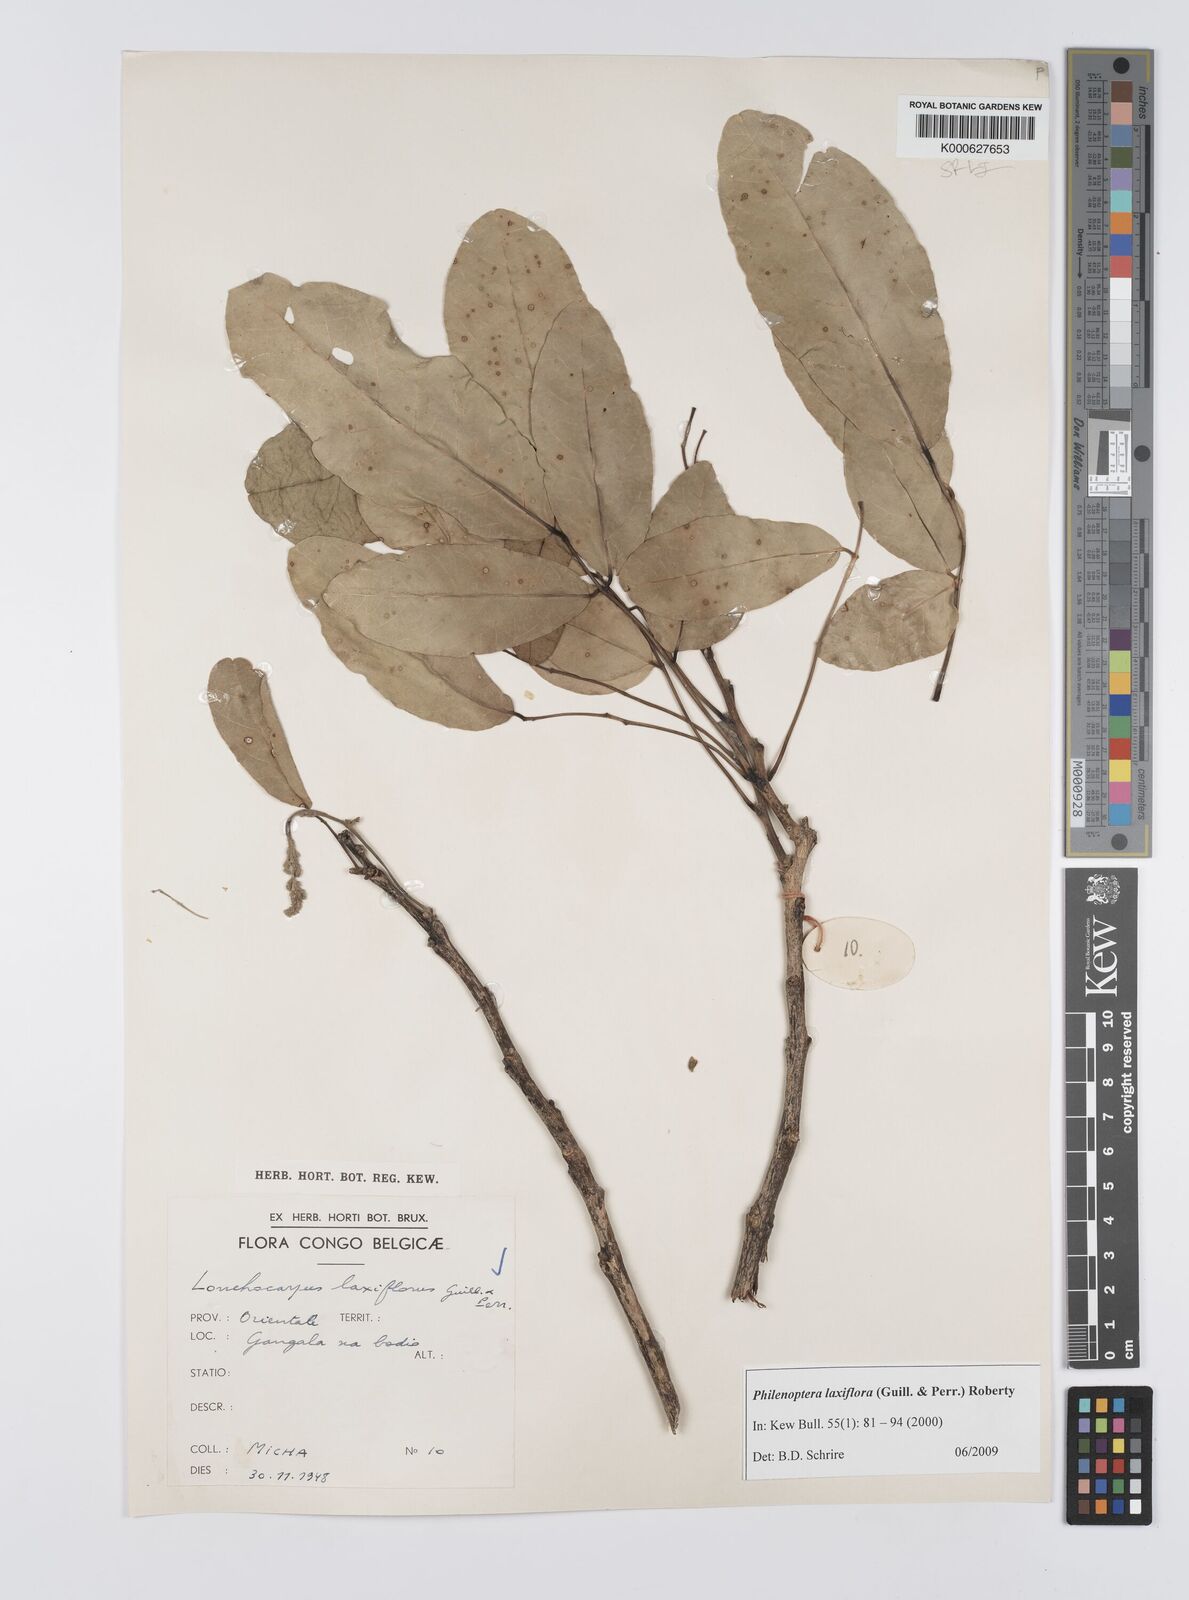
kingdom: Plantae
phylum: Tracheophyta
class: Magnoliopsida
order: Fabales
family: Fabaceae
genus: Philenoptera
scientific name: Philenoptera laxiflora
